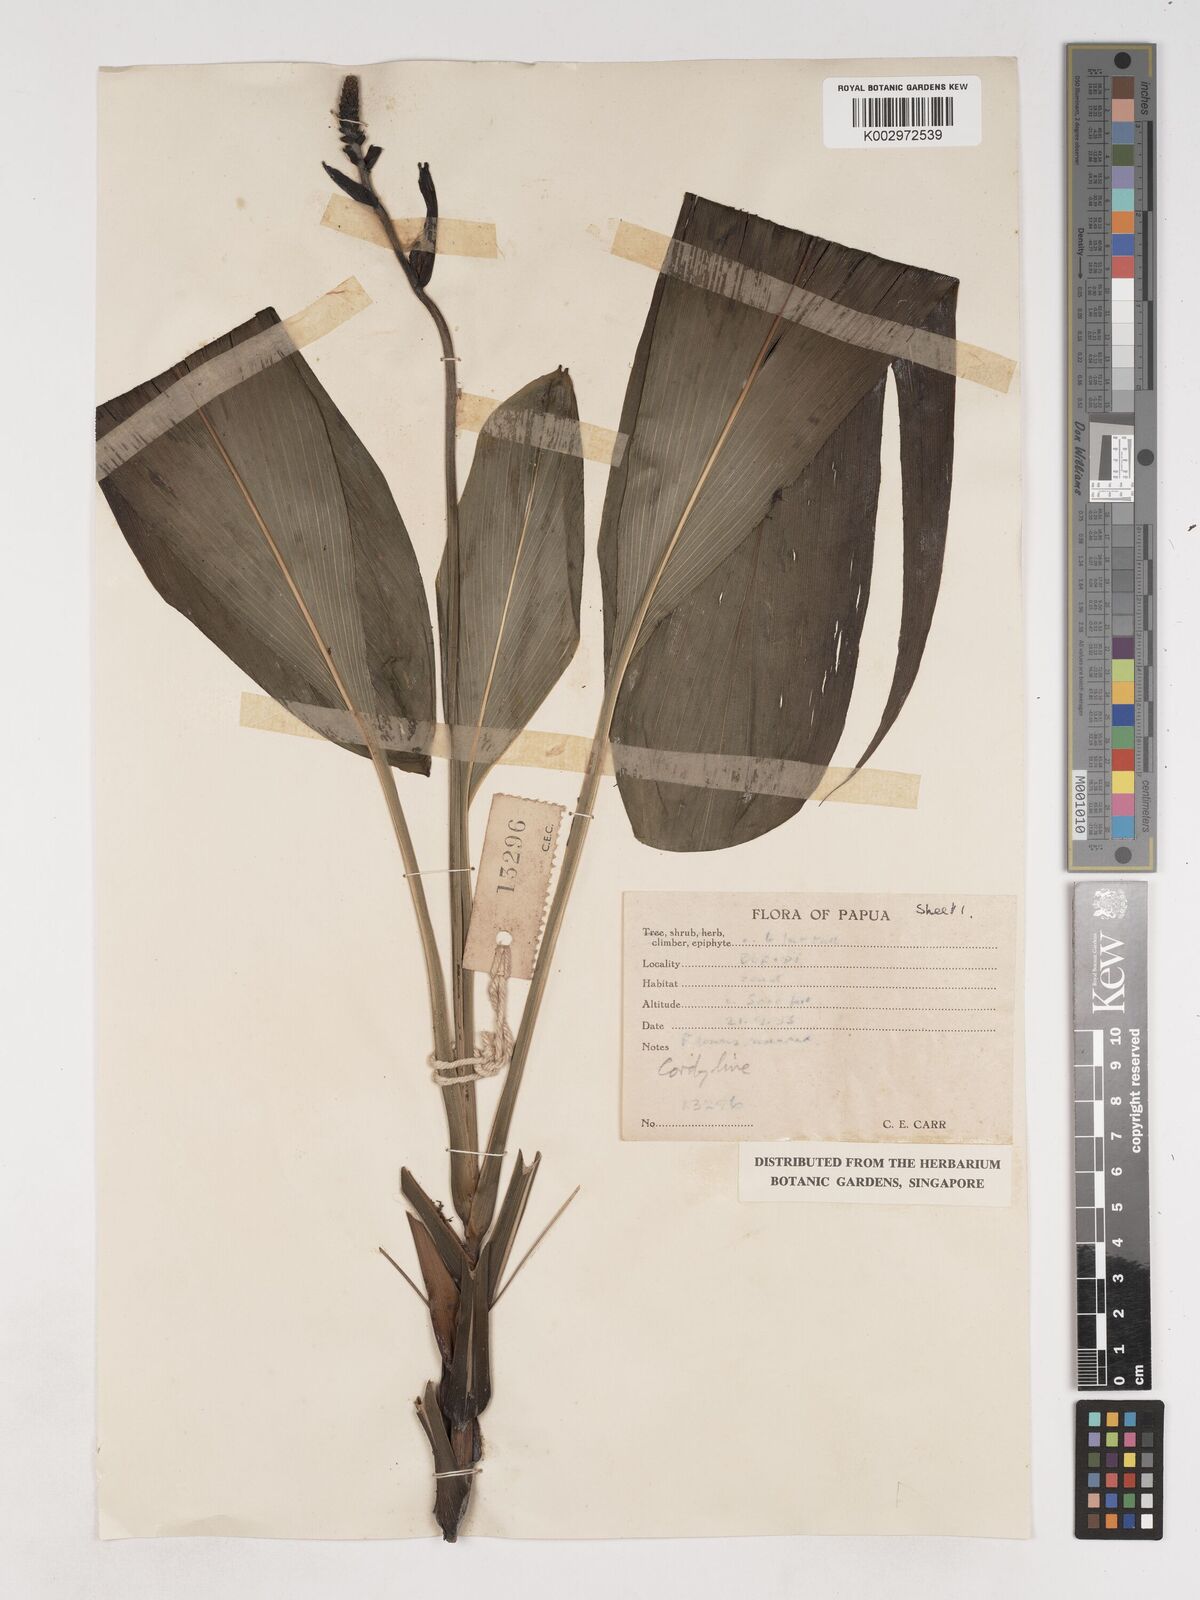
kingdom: Plantae
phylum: Tracheophyta
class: Liliopsida
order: Asparagales
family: Asparagaceae
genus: Cordyline
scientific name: Cordyline
